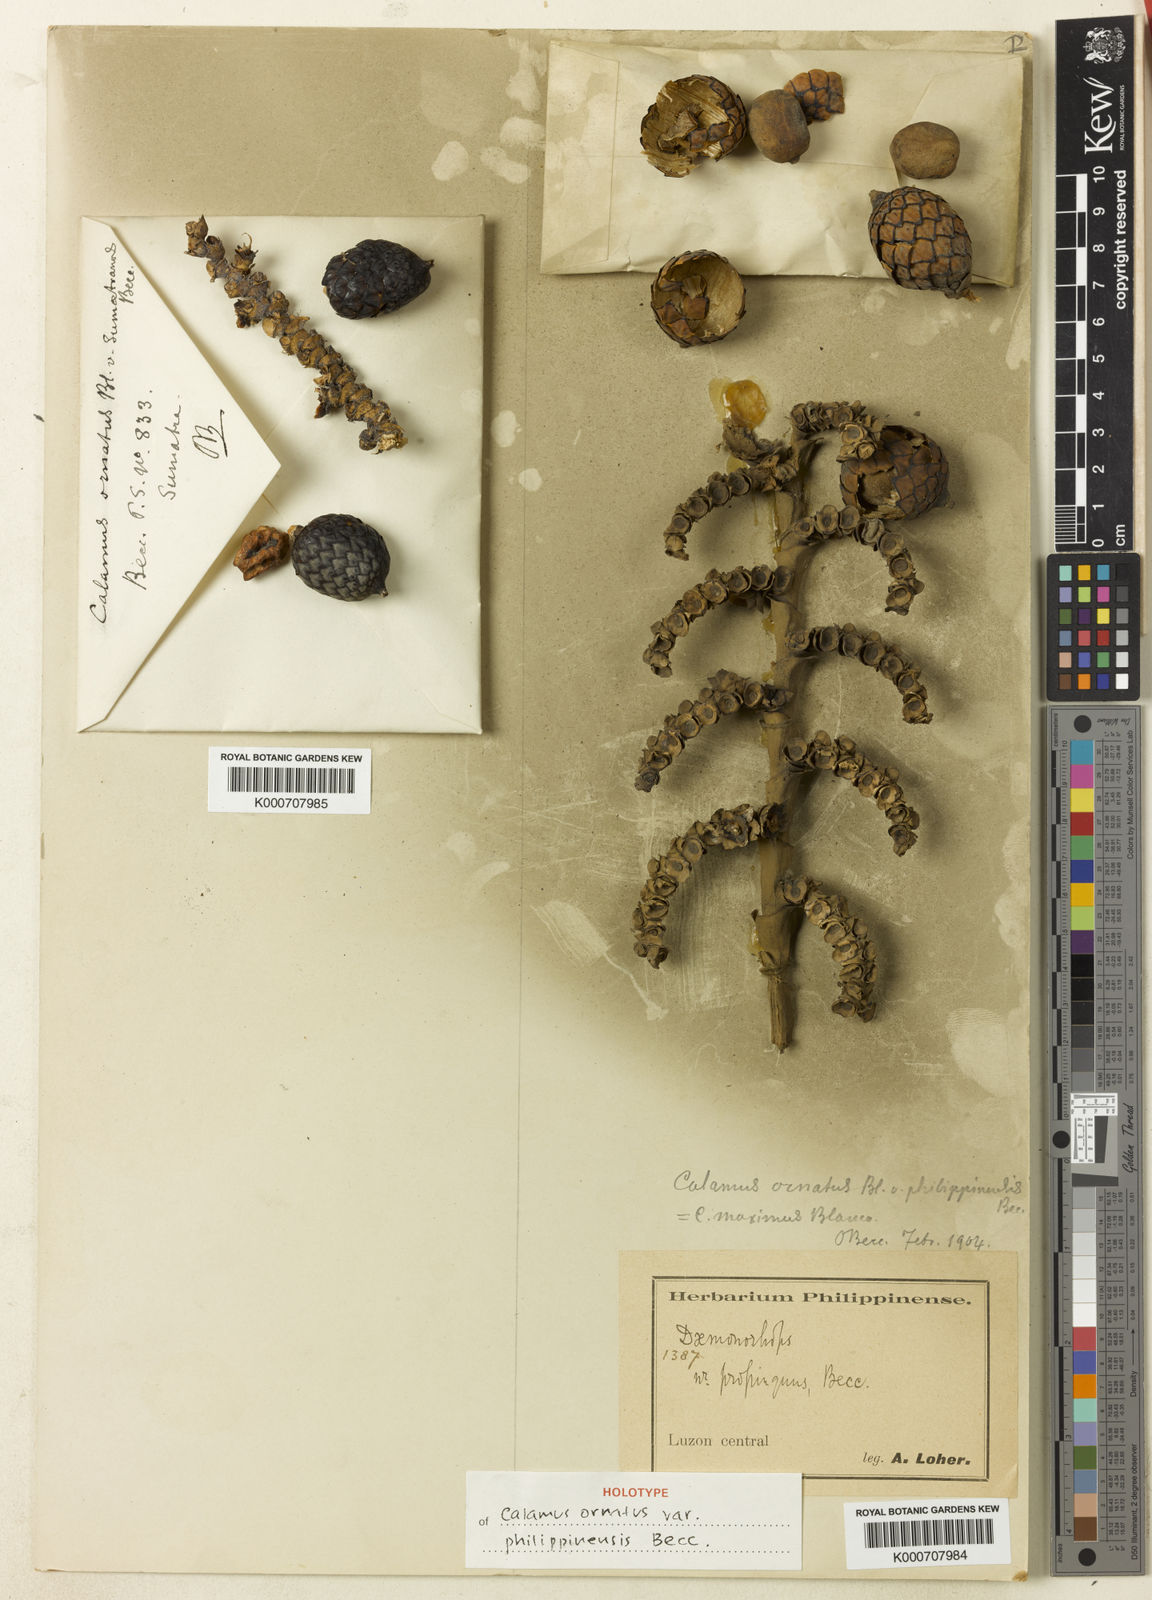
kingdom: Plantae
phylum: Tracheophyta
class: Liliopsida
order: Arecales
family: Arecaceae
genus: Calamus
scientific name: Calamus ornatus
